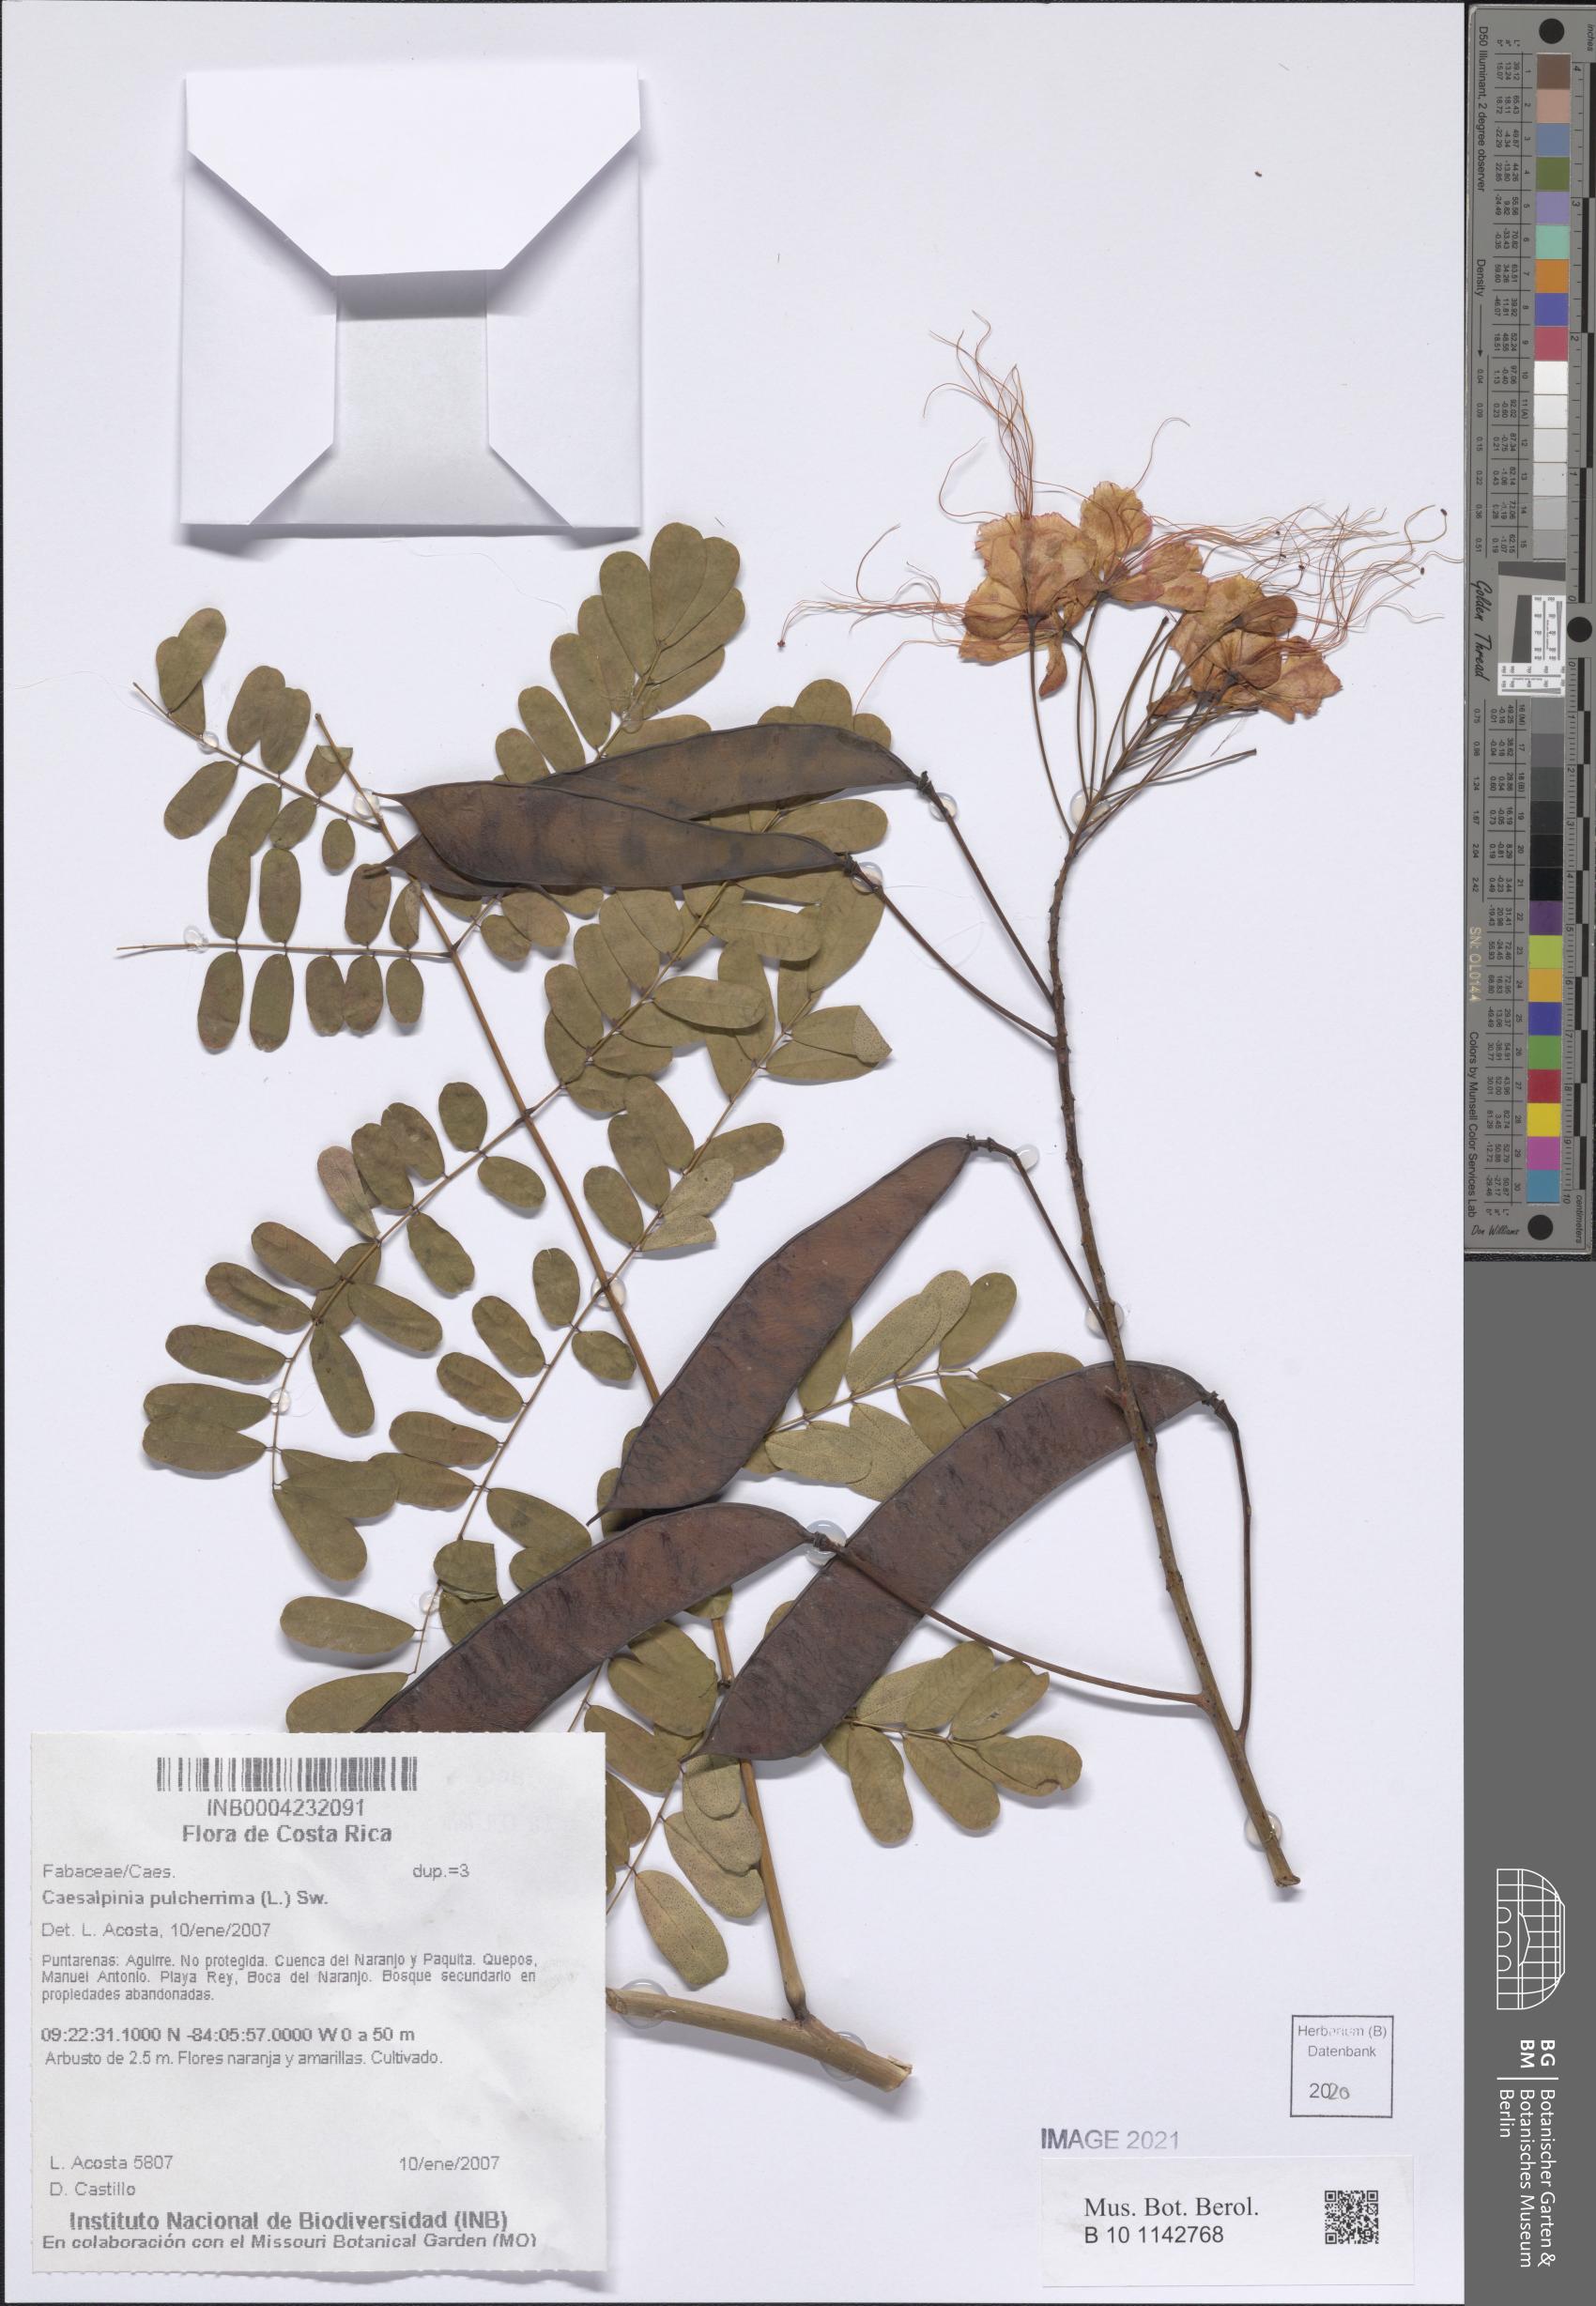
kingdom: Plantae
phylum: Tracheophyta
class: Magnoliopsida
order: Fabales
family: Fabaceae
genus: Caesalpinia
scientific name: Caesalpinia pulcherrima
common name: Pride-of-barbados
